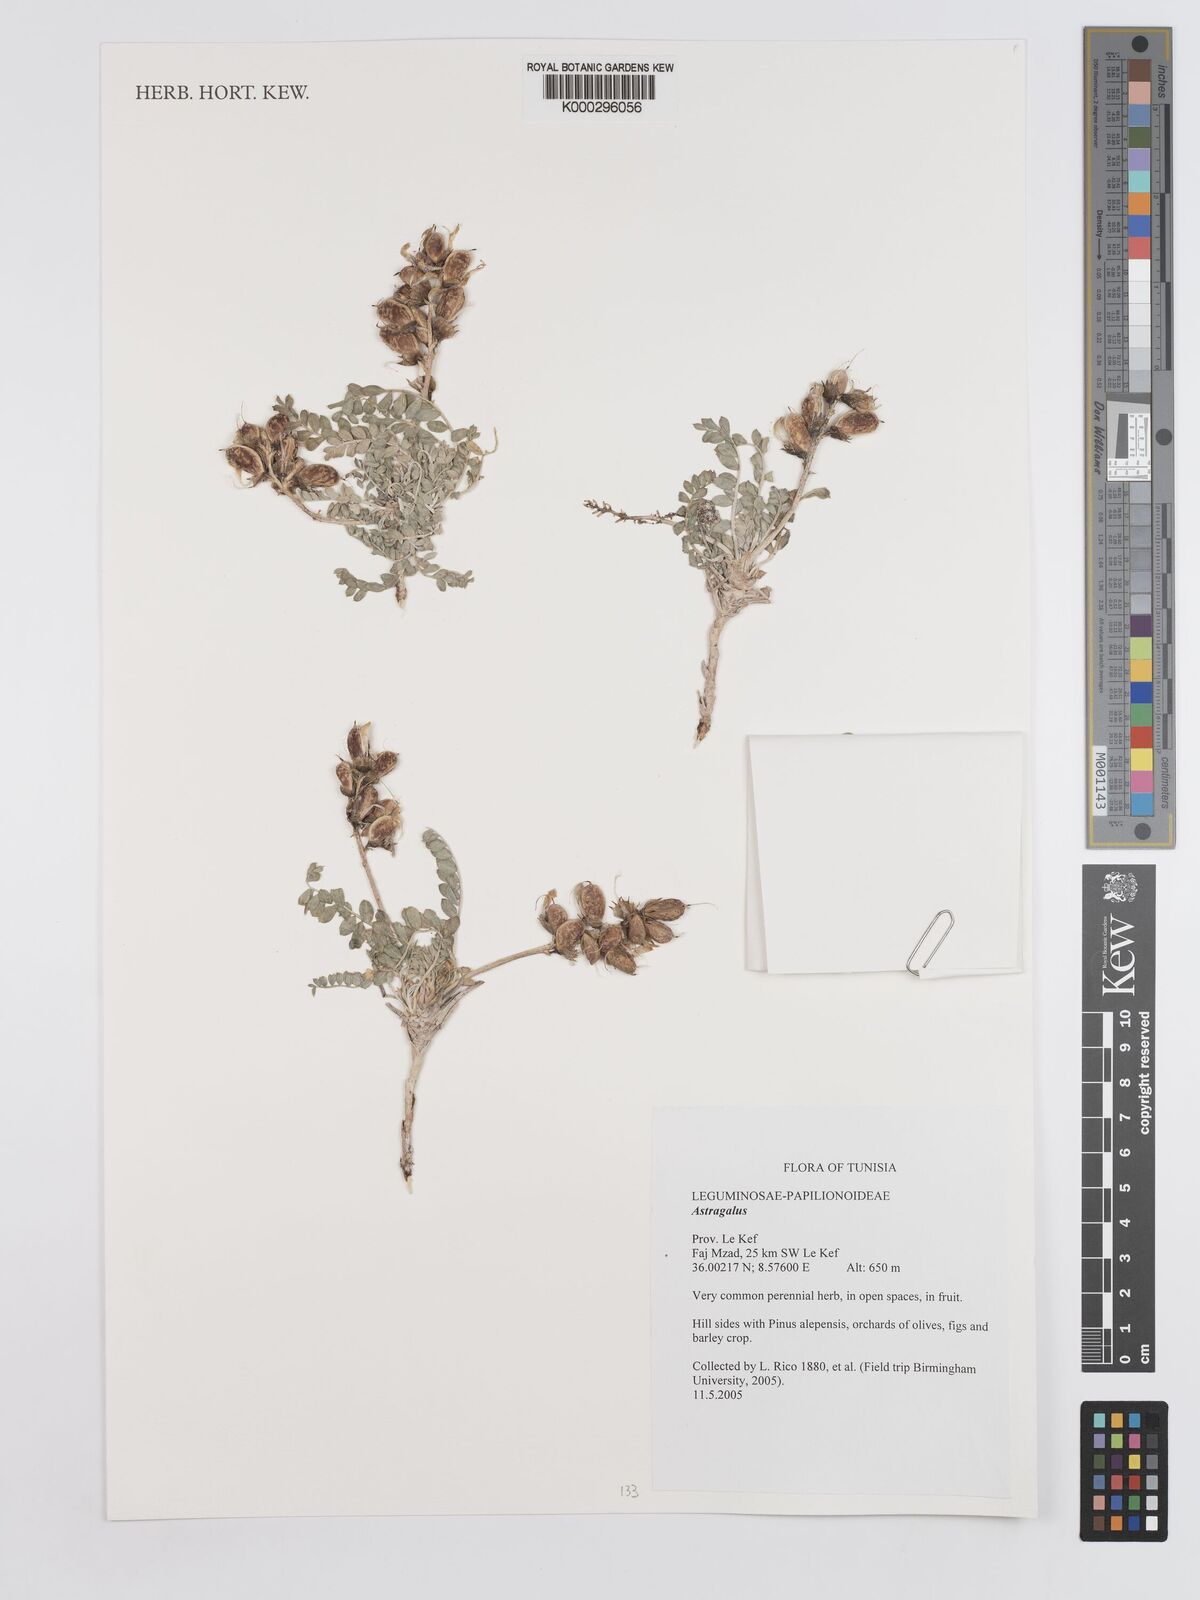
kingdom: Plantae
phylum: Tracheophyta
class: Magnoliopsida
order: Fabales
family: Fabaceae
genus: Astragalus
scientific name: Astragalus
